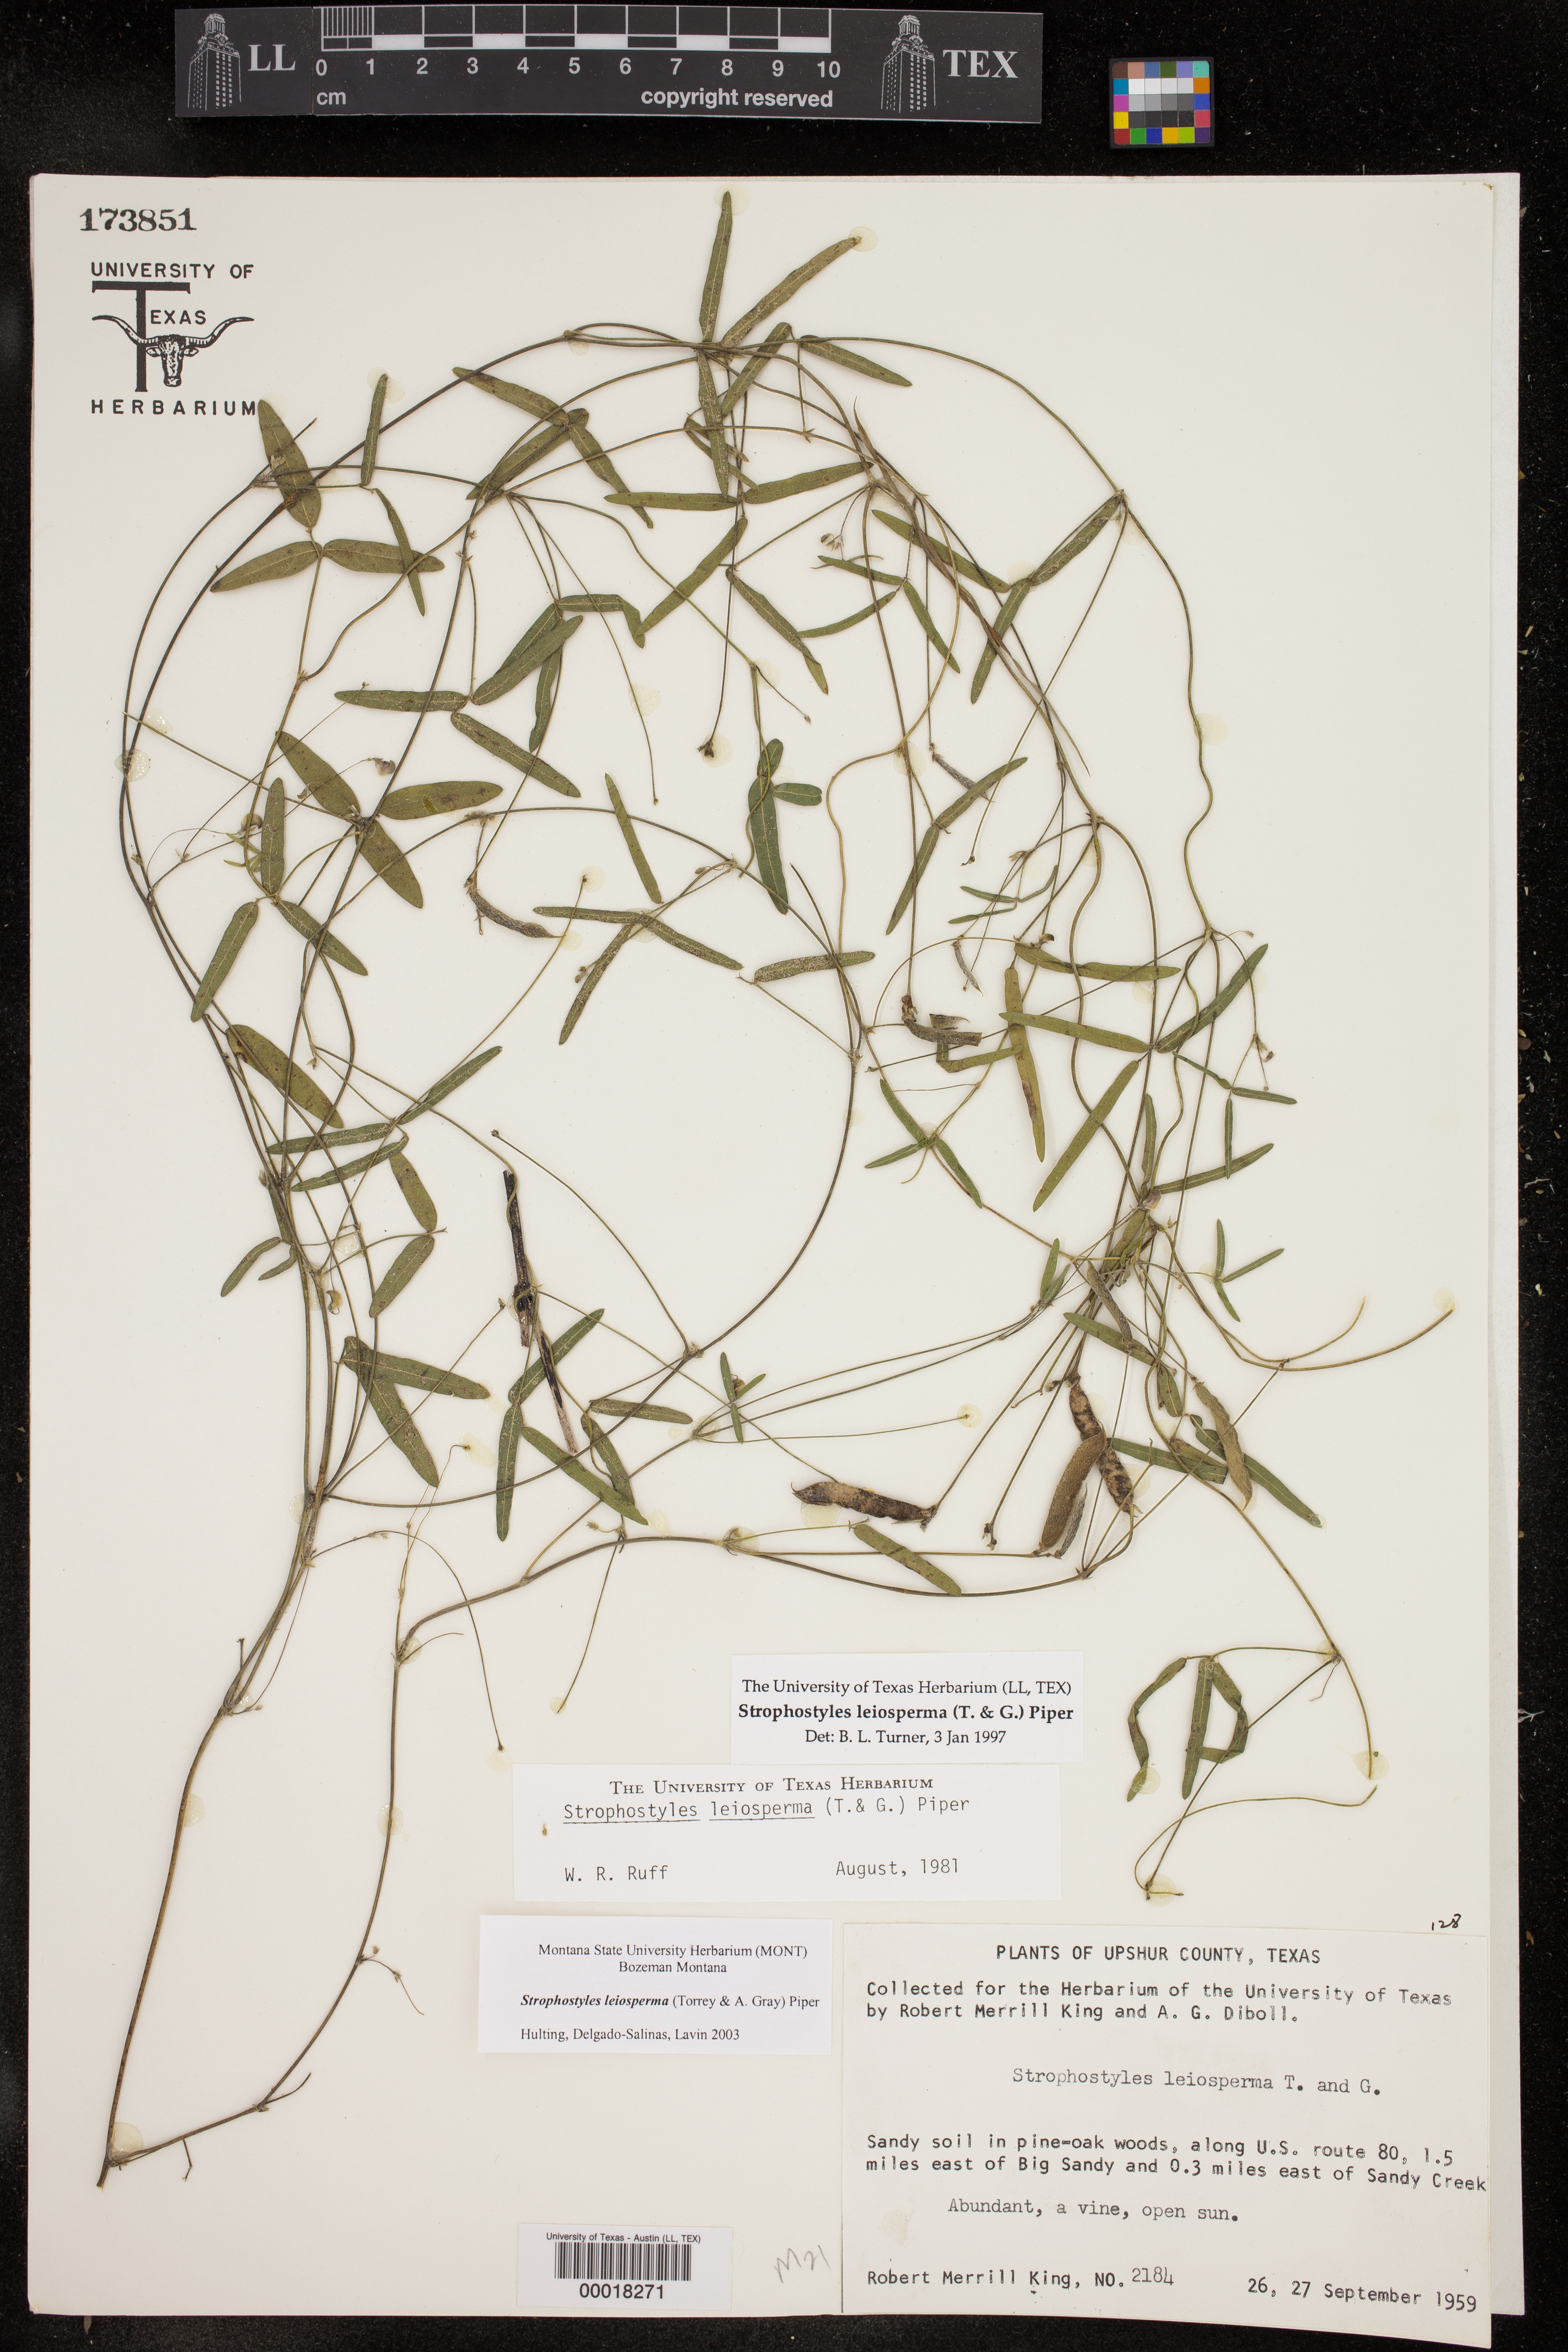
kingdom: Plantae
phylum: Tracheophyta
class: Magnoliopsida
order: Fabales
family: Fabaceae
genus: Strophostyles
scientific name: Strophostyles leiosperma
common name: Smooth-seed wild bean
